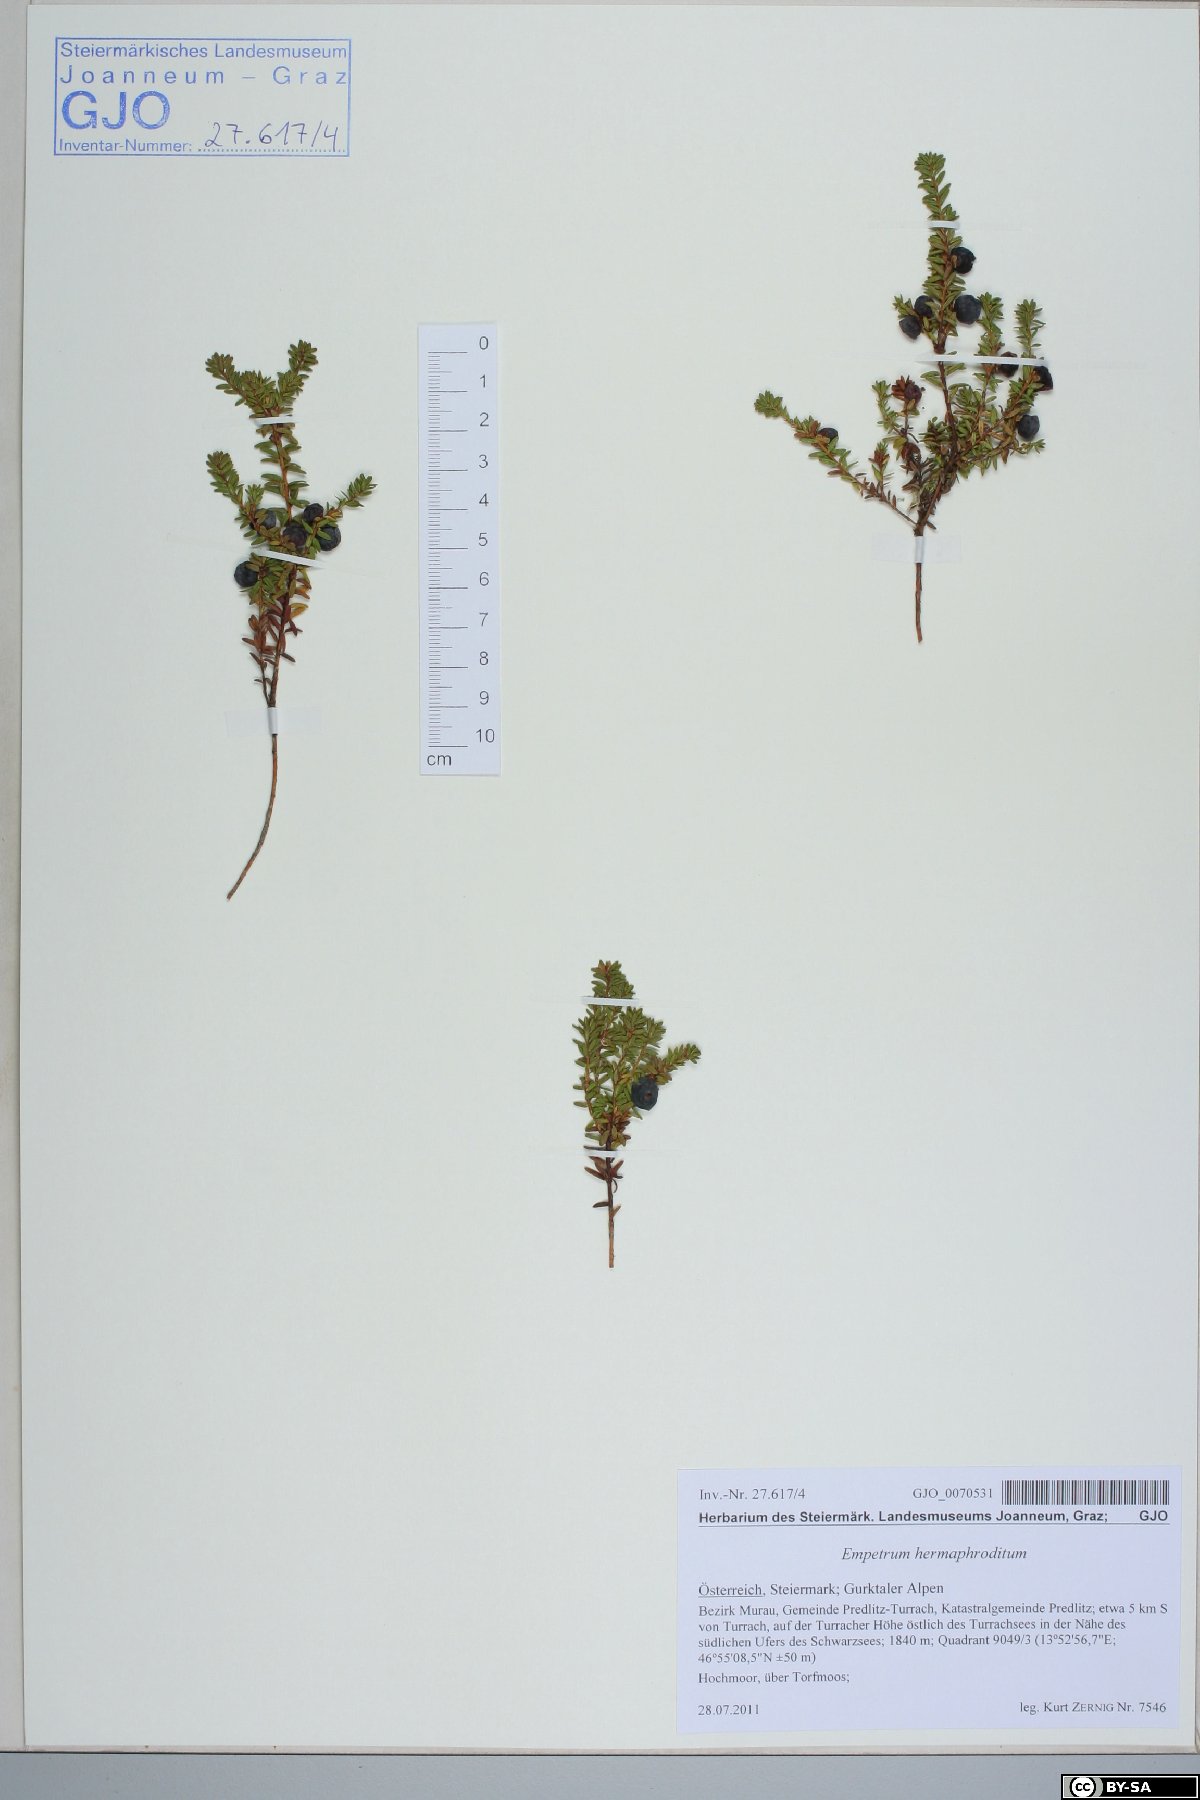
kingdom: Plantae
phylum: Tracheophyta
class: Magnoliopsida
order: Ericales
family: Ericaceae
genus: Empetrum
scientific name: Empetrum hermaphroditum
